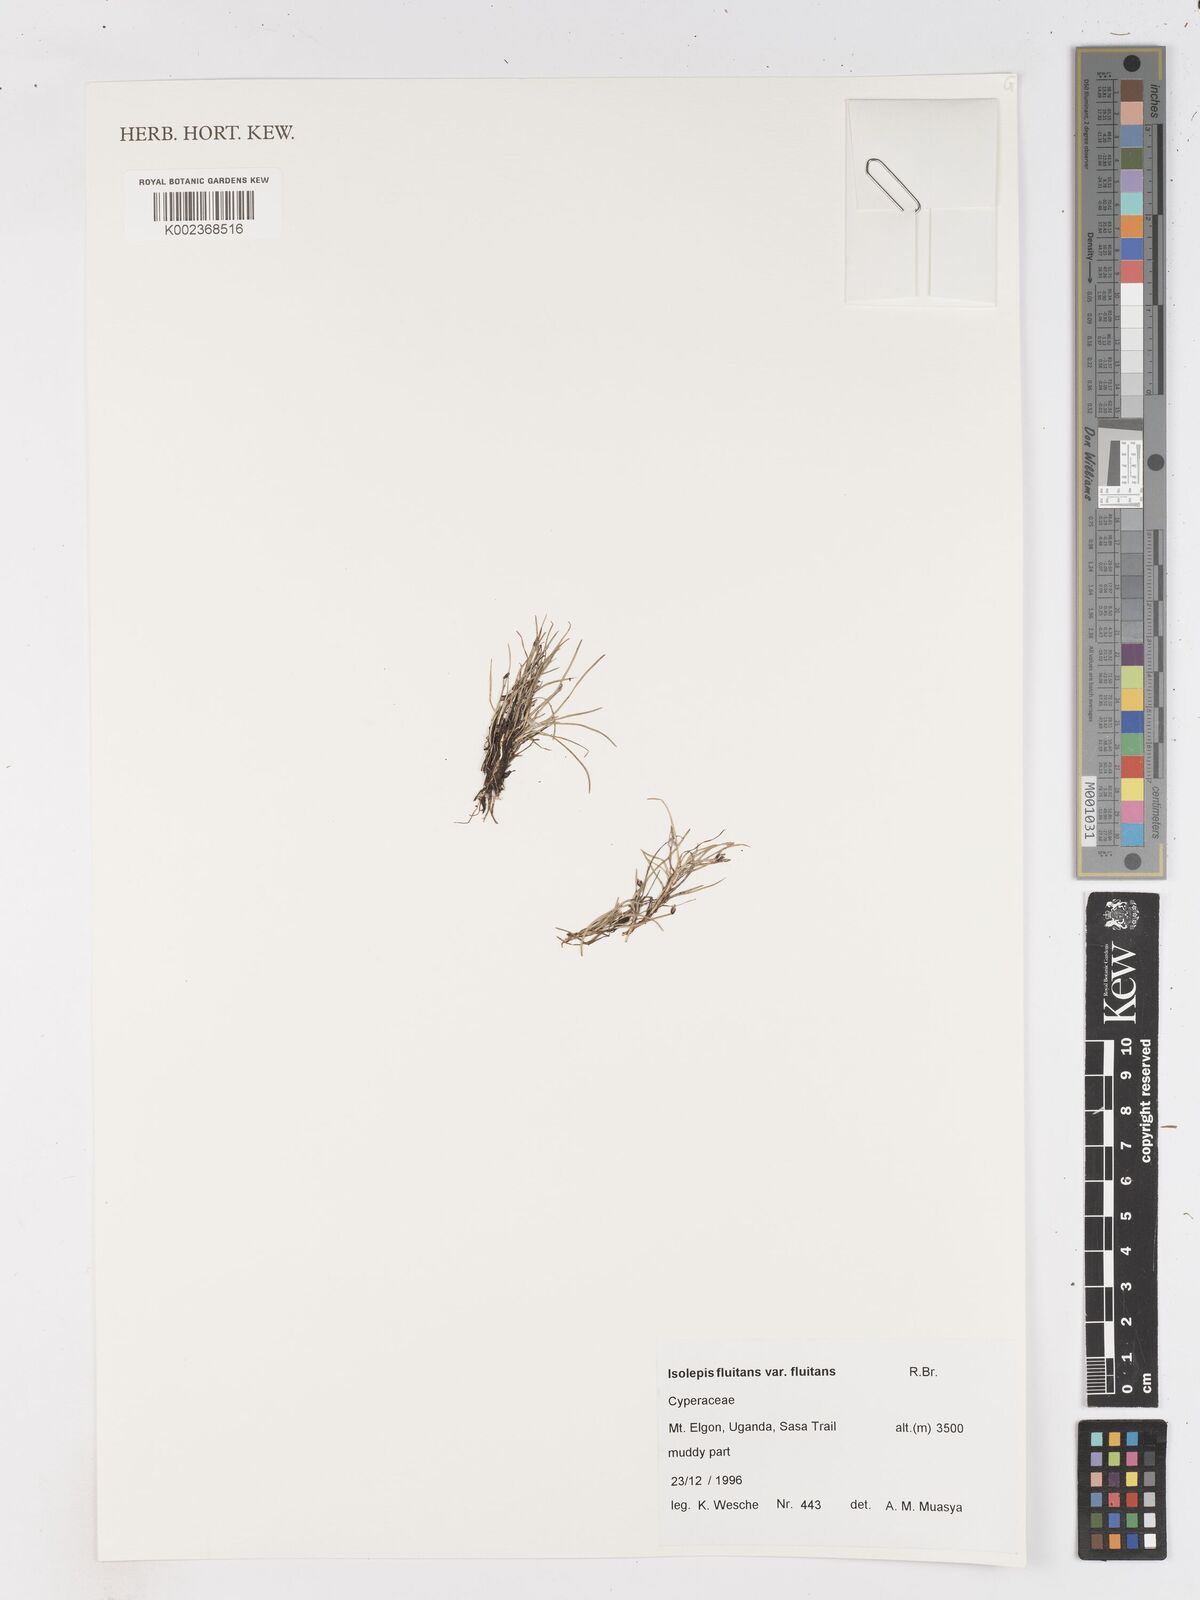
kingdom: Plantae
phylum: Tracheophyta
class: Liliopsida
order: Poales
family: Cyperaceae
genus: Isolepis
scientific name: Isolepis fluitans
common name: Floating club-rush
